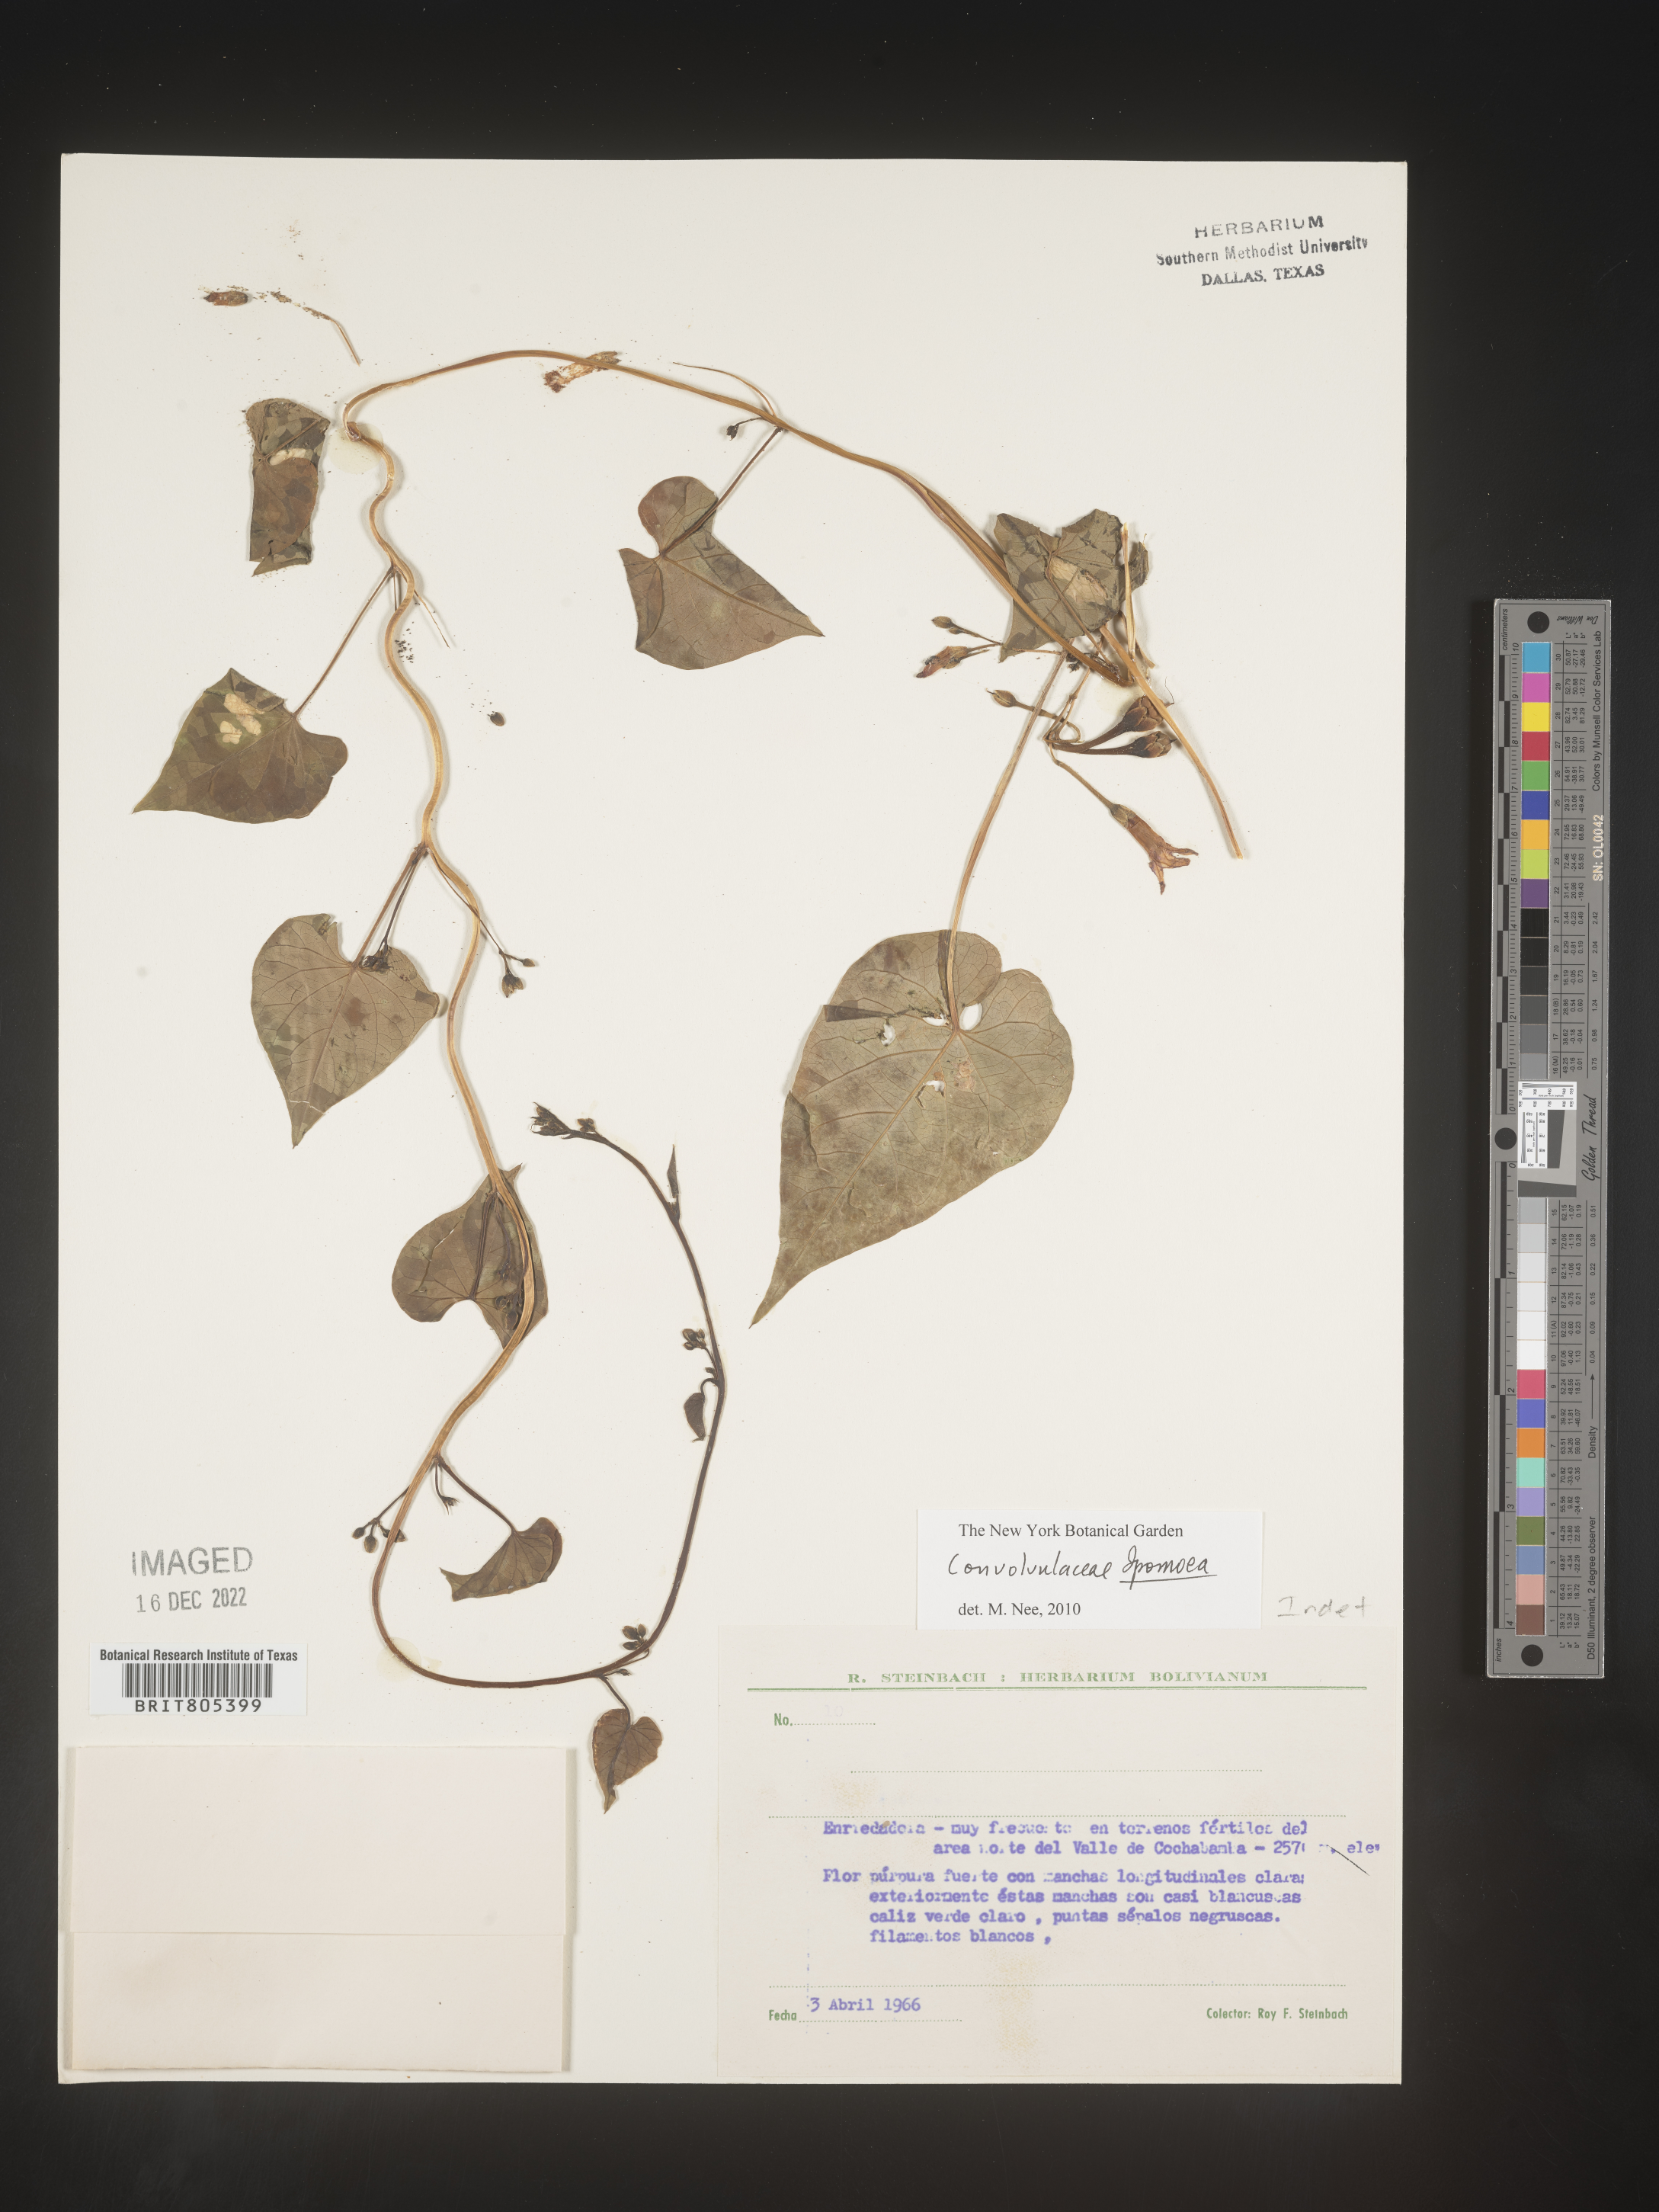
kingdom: Plantae
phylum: Tracheophyta
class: Magnoliopsida
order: Solanales
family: Convolvulaceae
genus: Ipomoea
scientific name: Ipomoea
